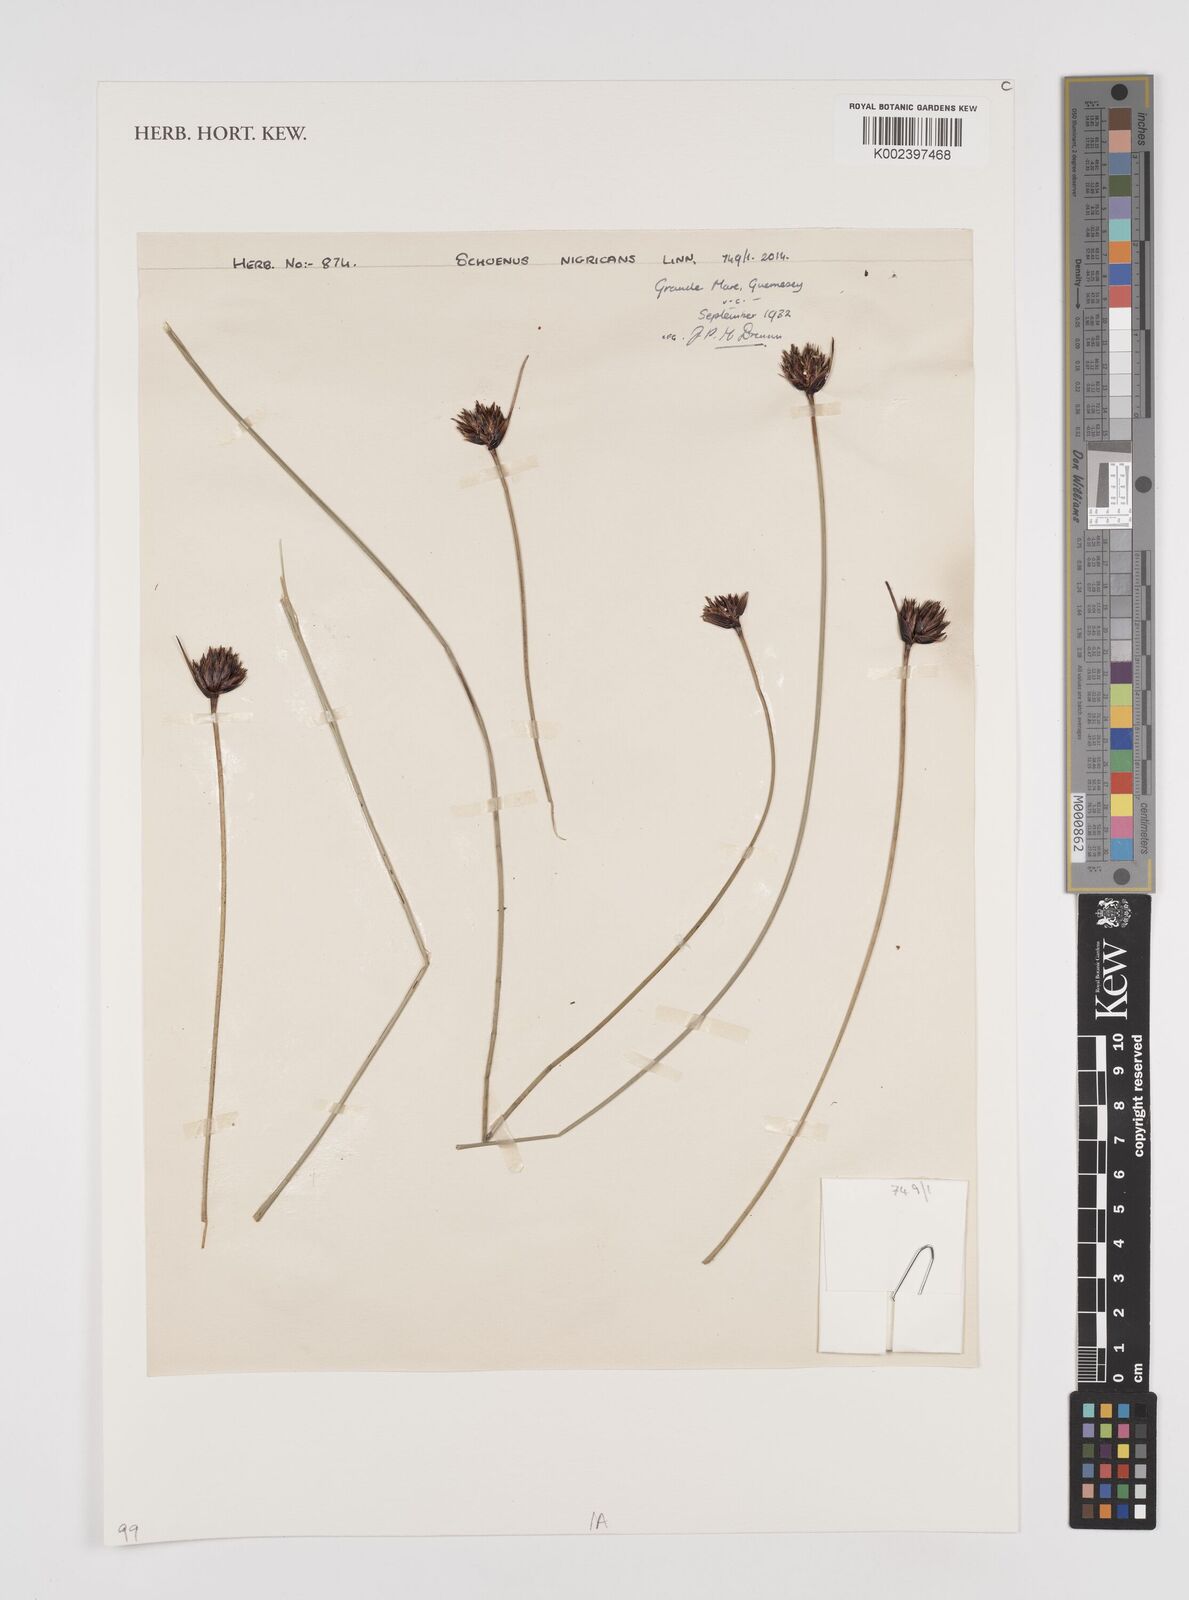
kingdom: Plantae
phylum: Tracheophyta
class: Liliopsida
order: Poales
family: Cyperaceae
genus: Schoenus
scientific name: Schoenus
